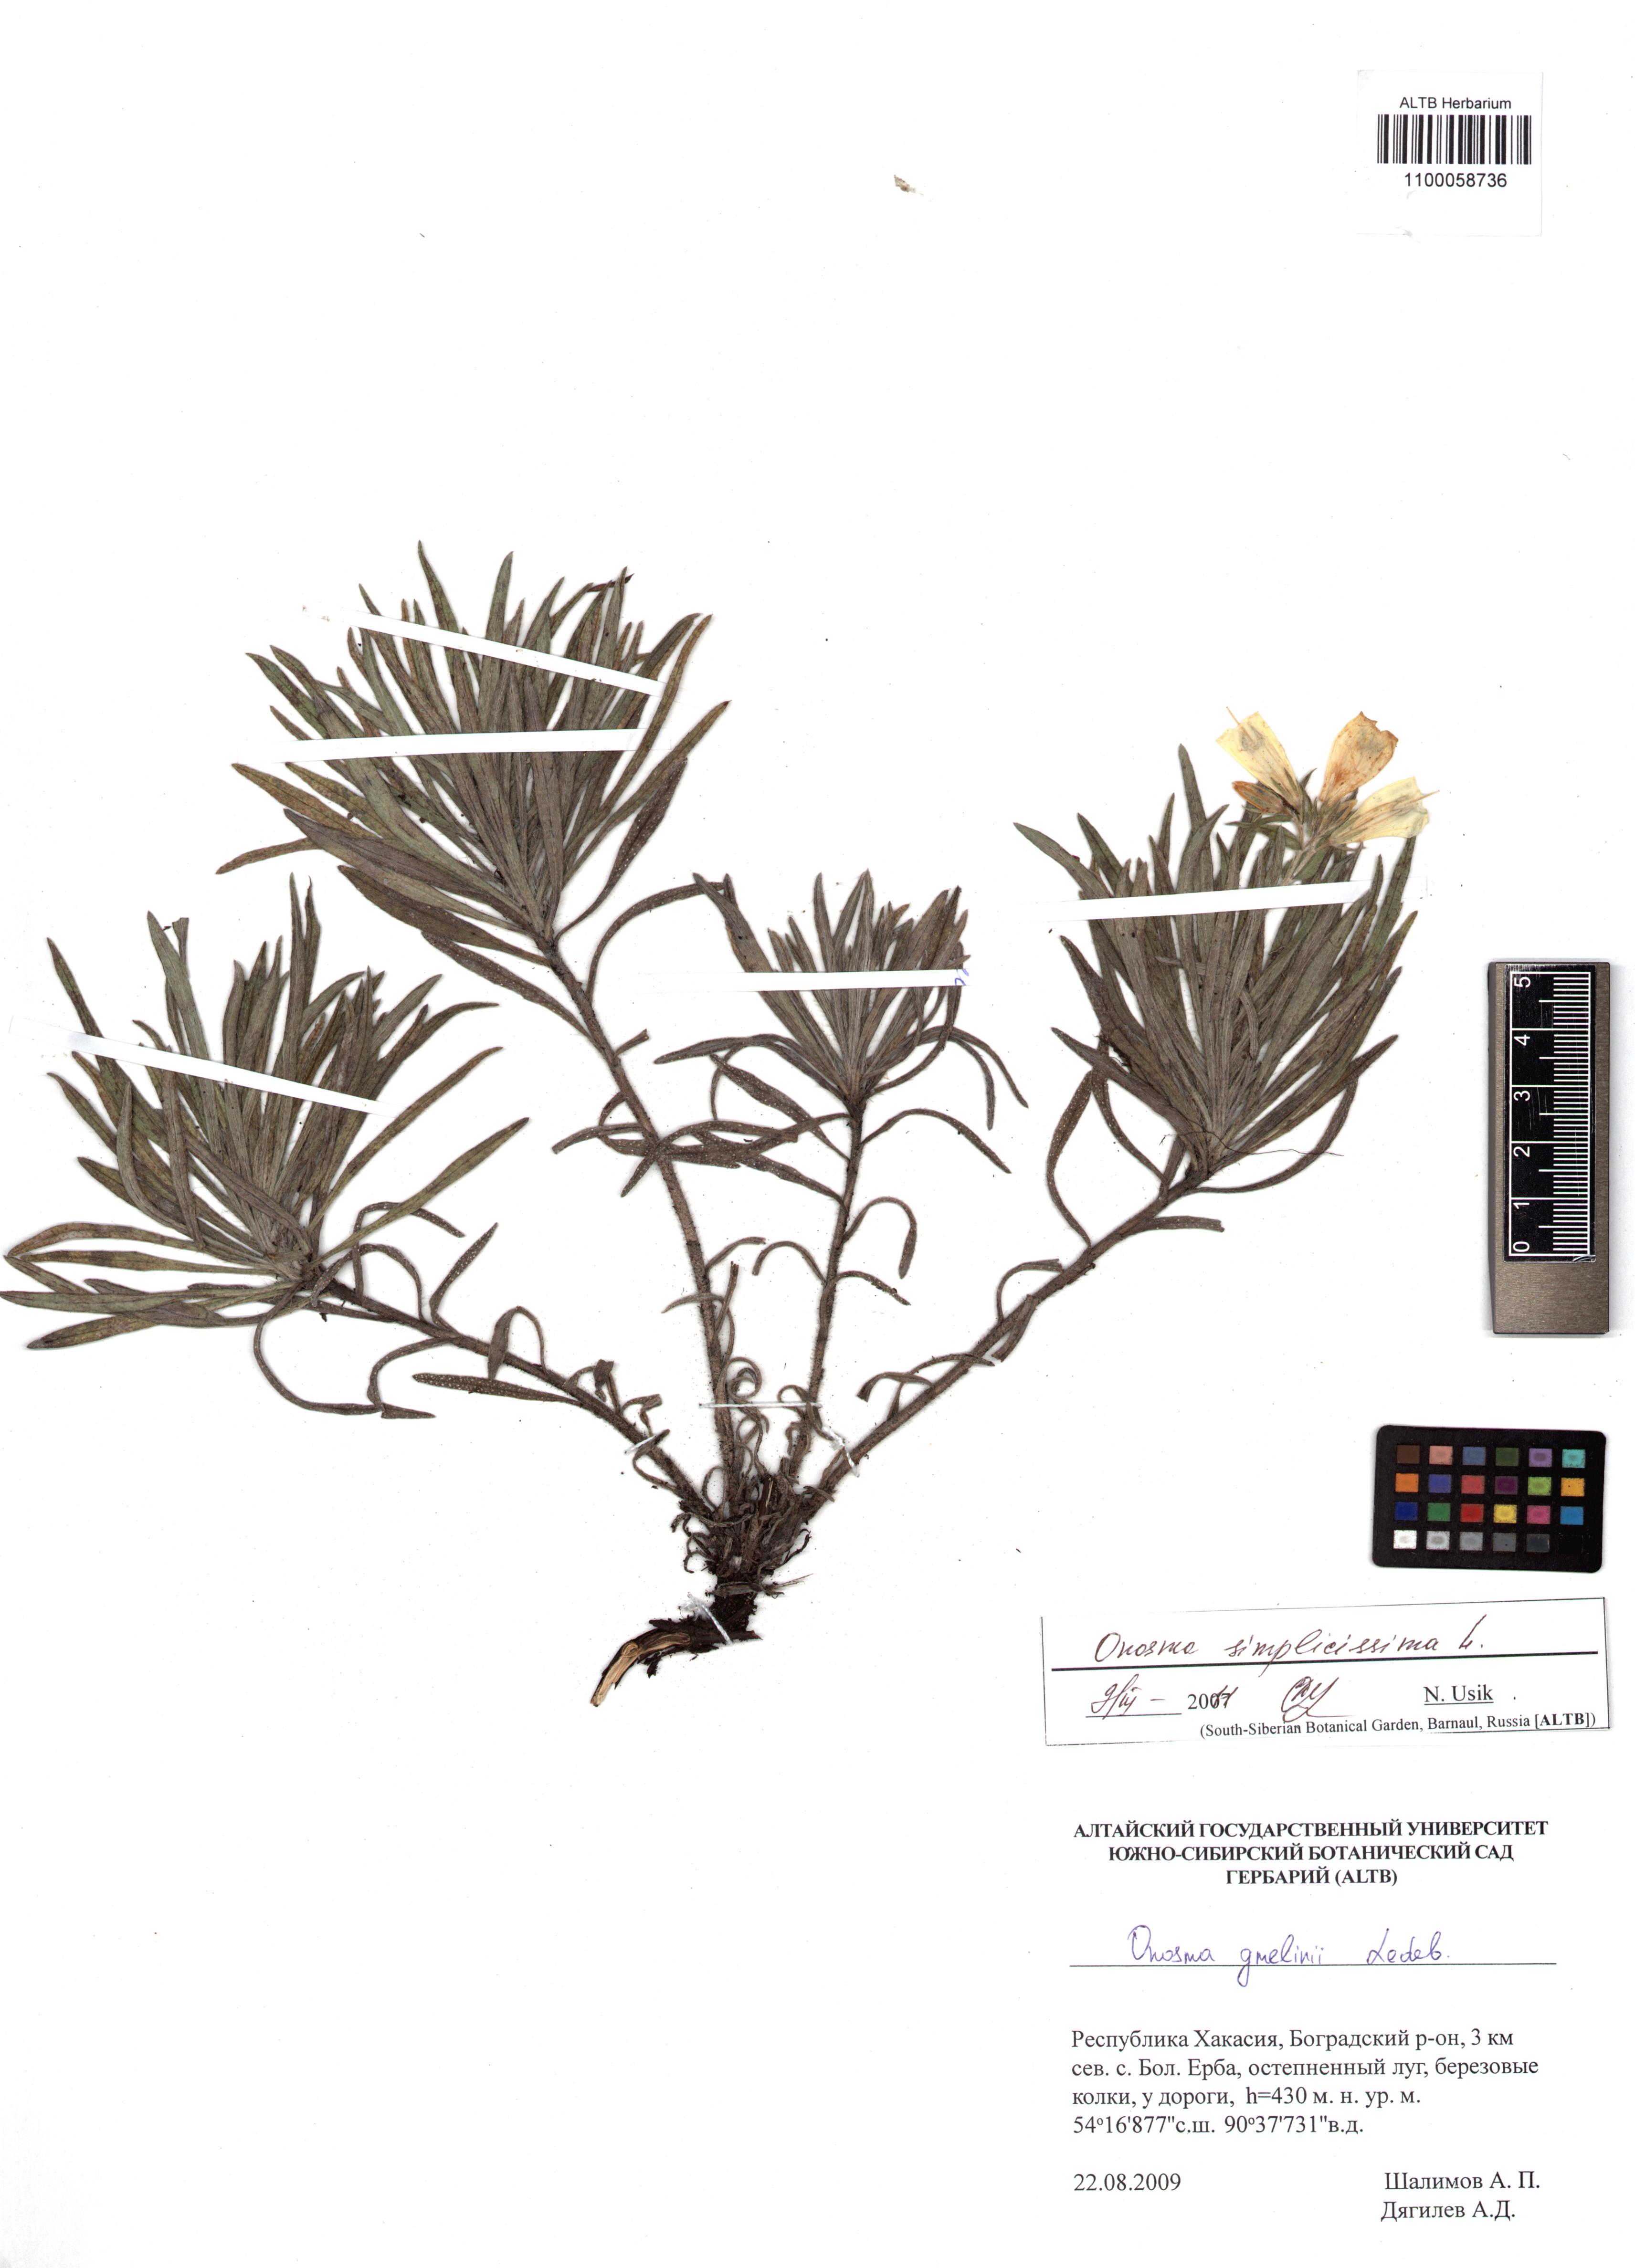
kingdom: Plantae
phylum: Tracheophyta
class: Magnoliopsida
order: Boraginales
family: Boraginaceae
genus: Onosma
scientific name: Onosma simplicissima
